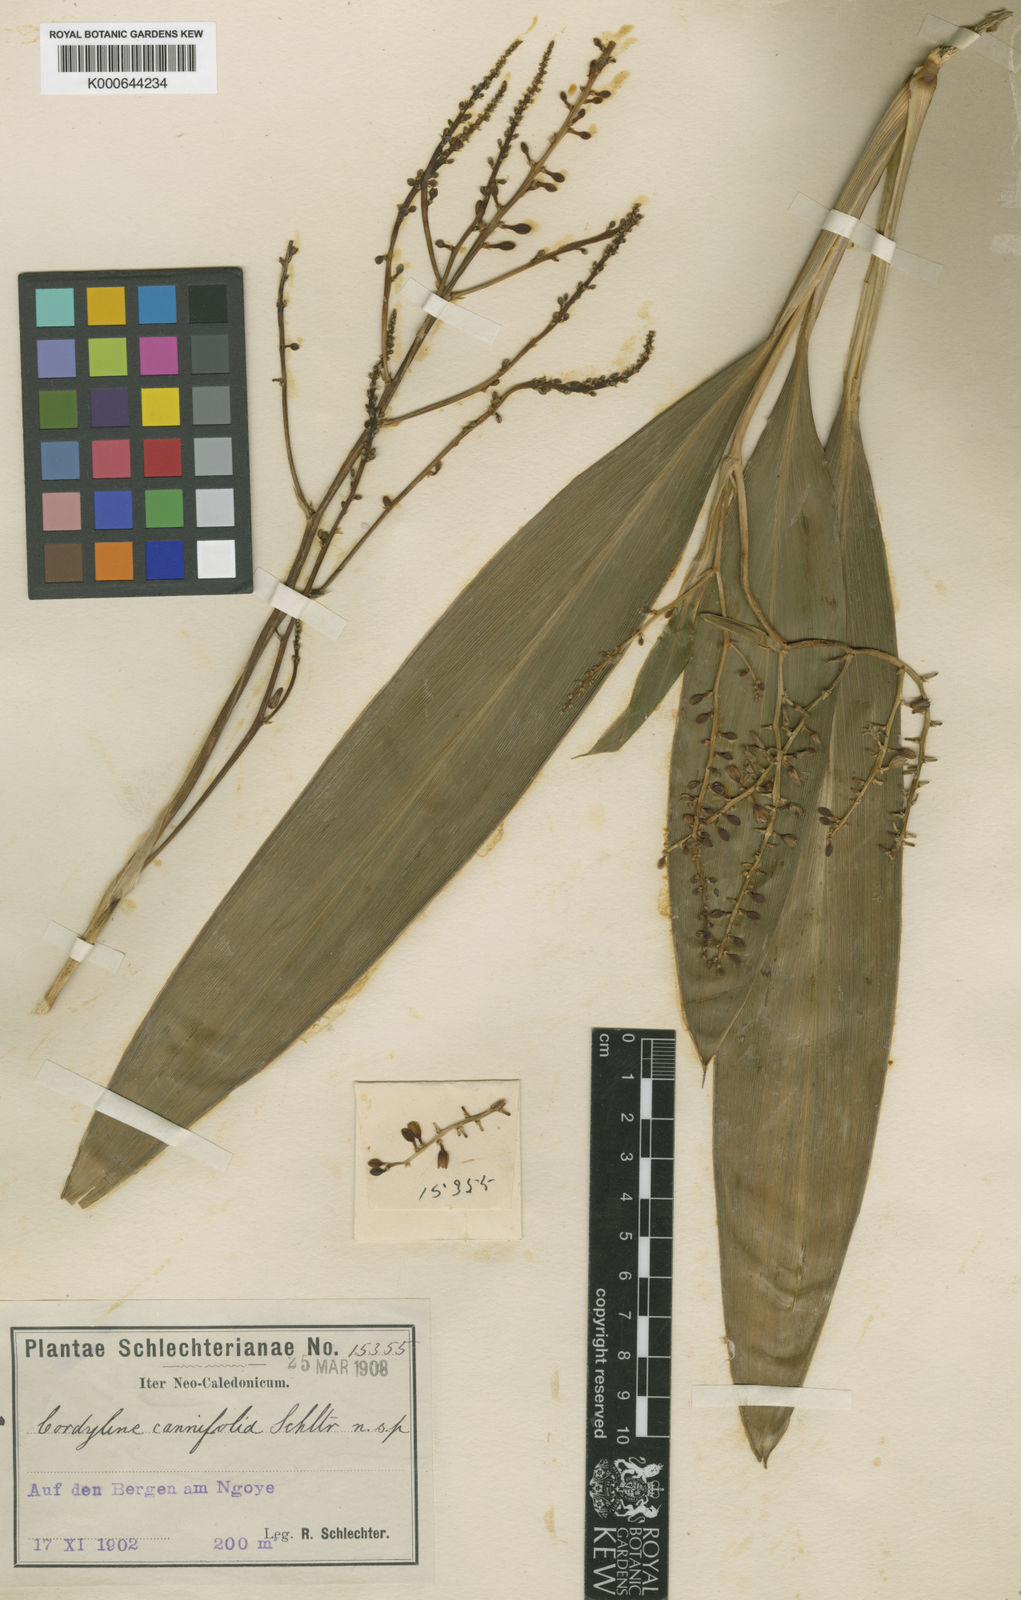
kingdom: Plantae
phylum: Tracheophyta
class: Liliopsida
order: Asparagales
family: Asparagaceae
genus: Cordyline
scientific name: Cordyline fruticosa
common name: Good-luck-plant
